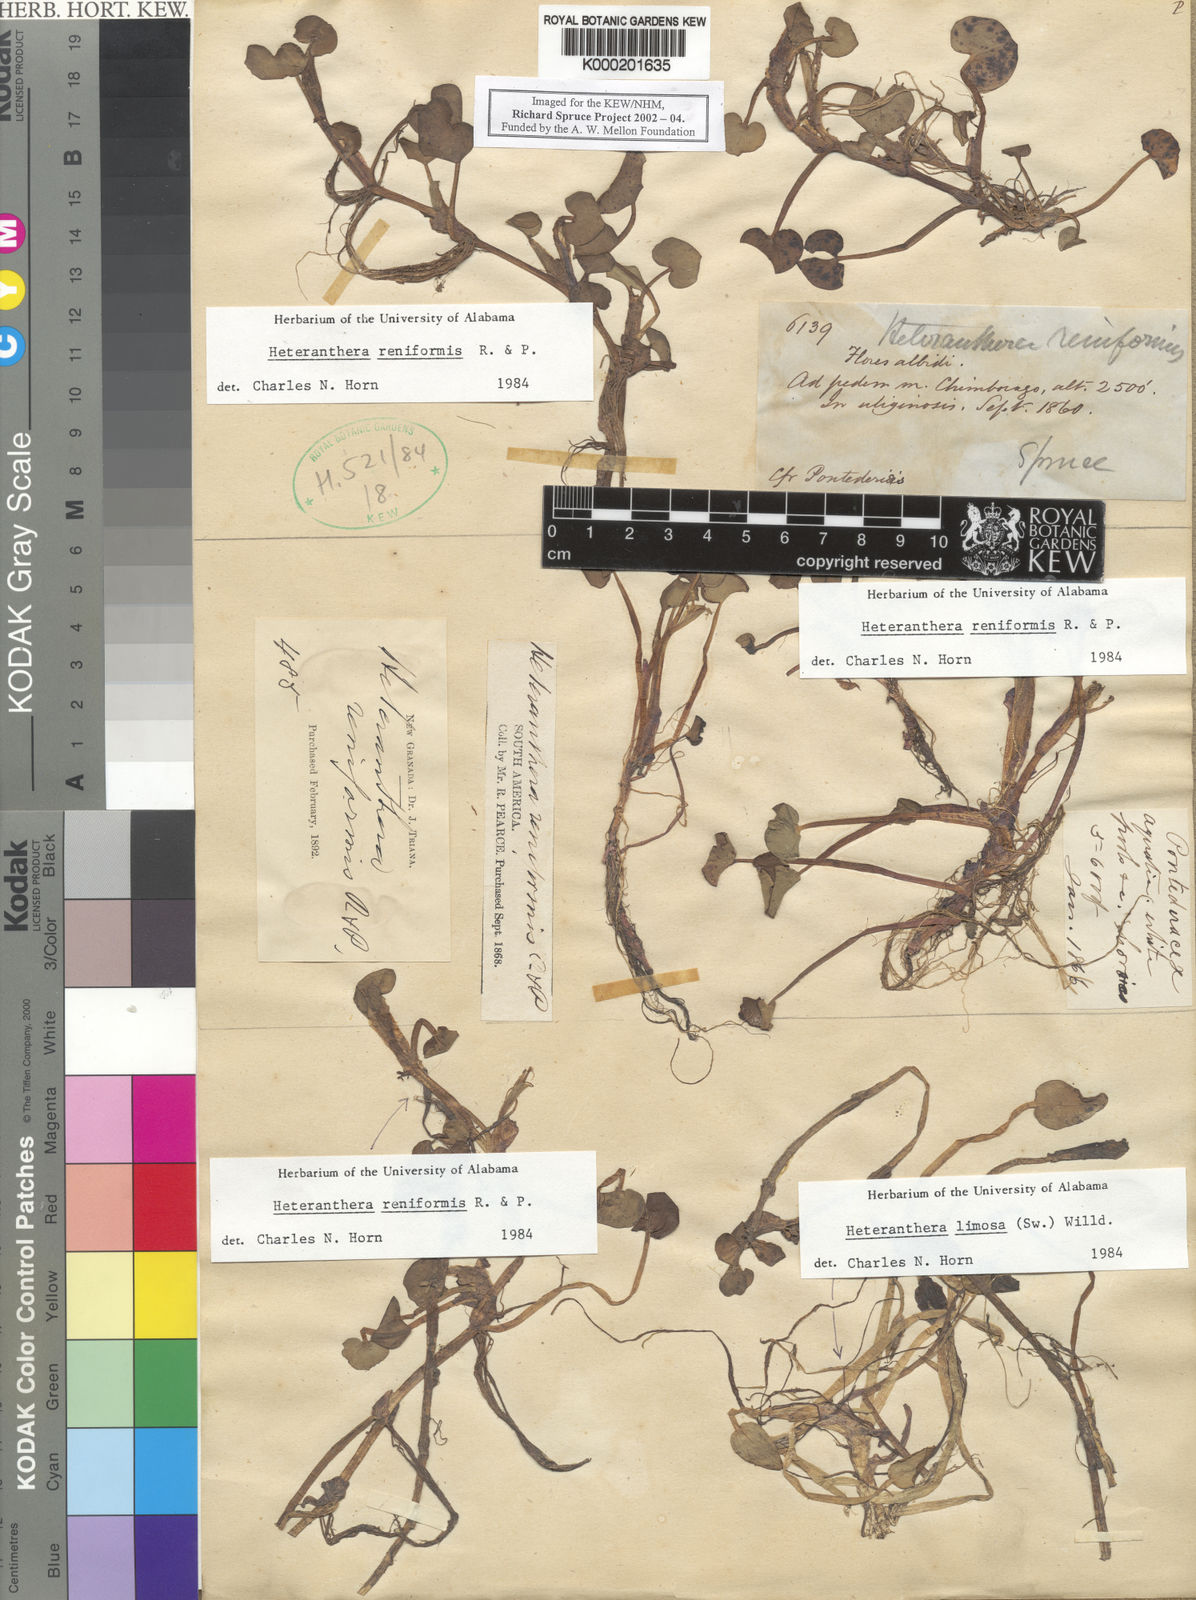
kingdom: Plantae
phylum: Tracheophyta
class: Liliopsida
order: Commelinales
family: Pontederiaceae
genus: Heteranthera
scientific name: Heteranthera reniformis
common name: Kidneyleaf mudplantain
